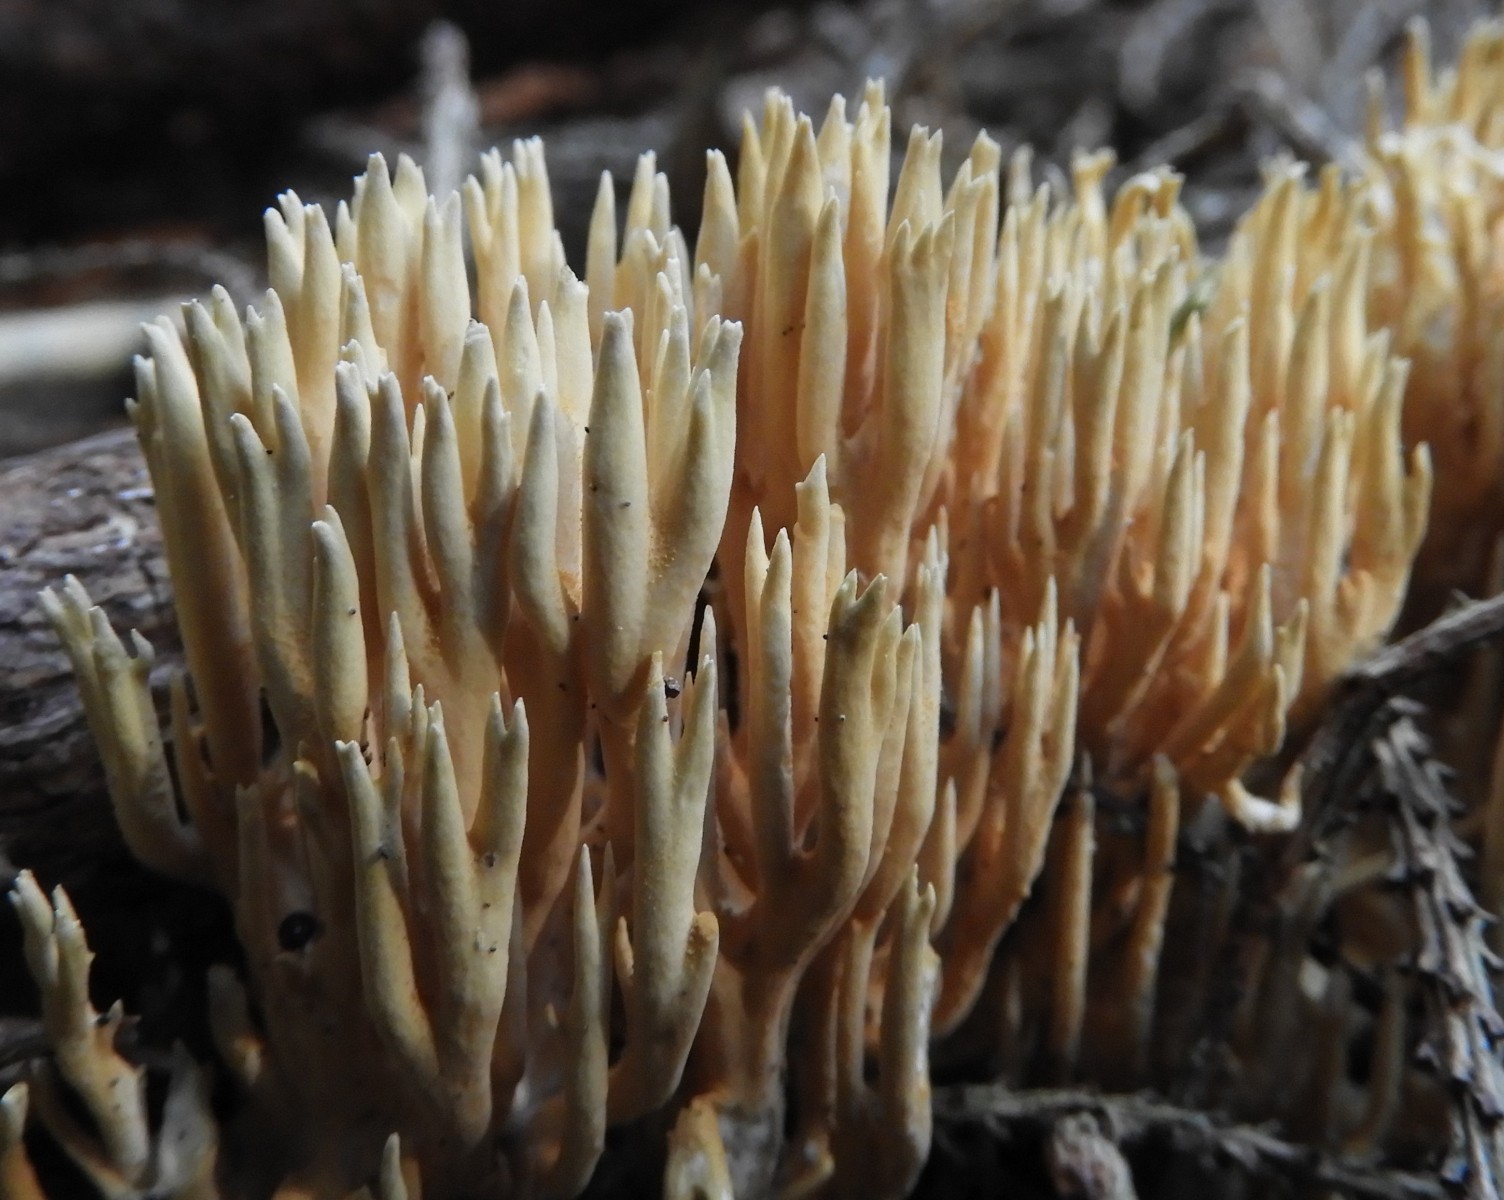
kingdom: Fungi
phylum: Basidiomycota
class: Agaricomycetes
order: Gomphales
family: Gomphaceae
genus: Ramaria
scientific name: Ramaria stricta
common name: rank koralsvamp
